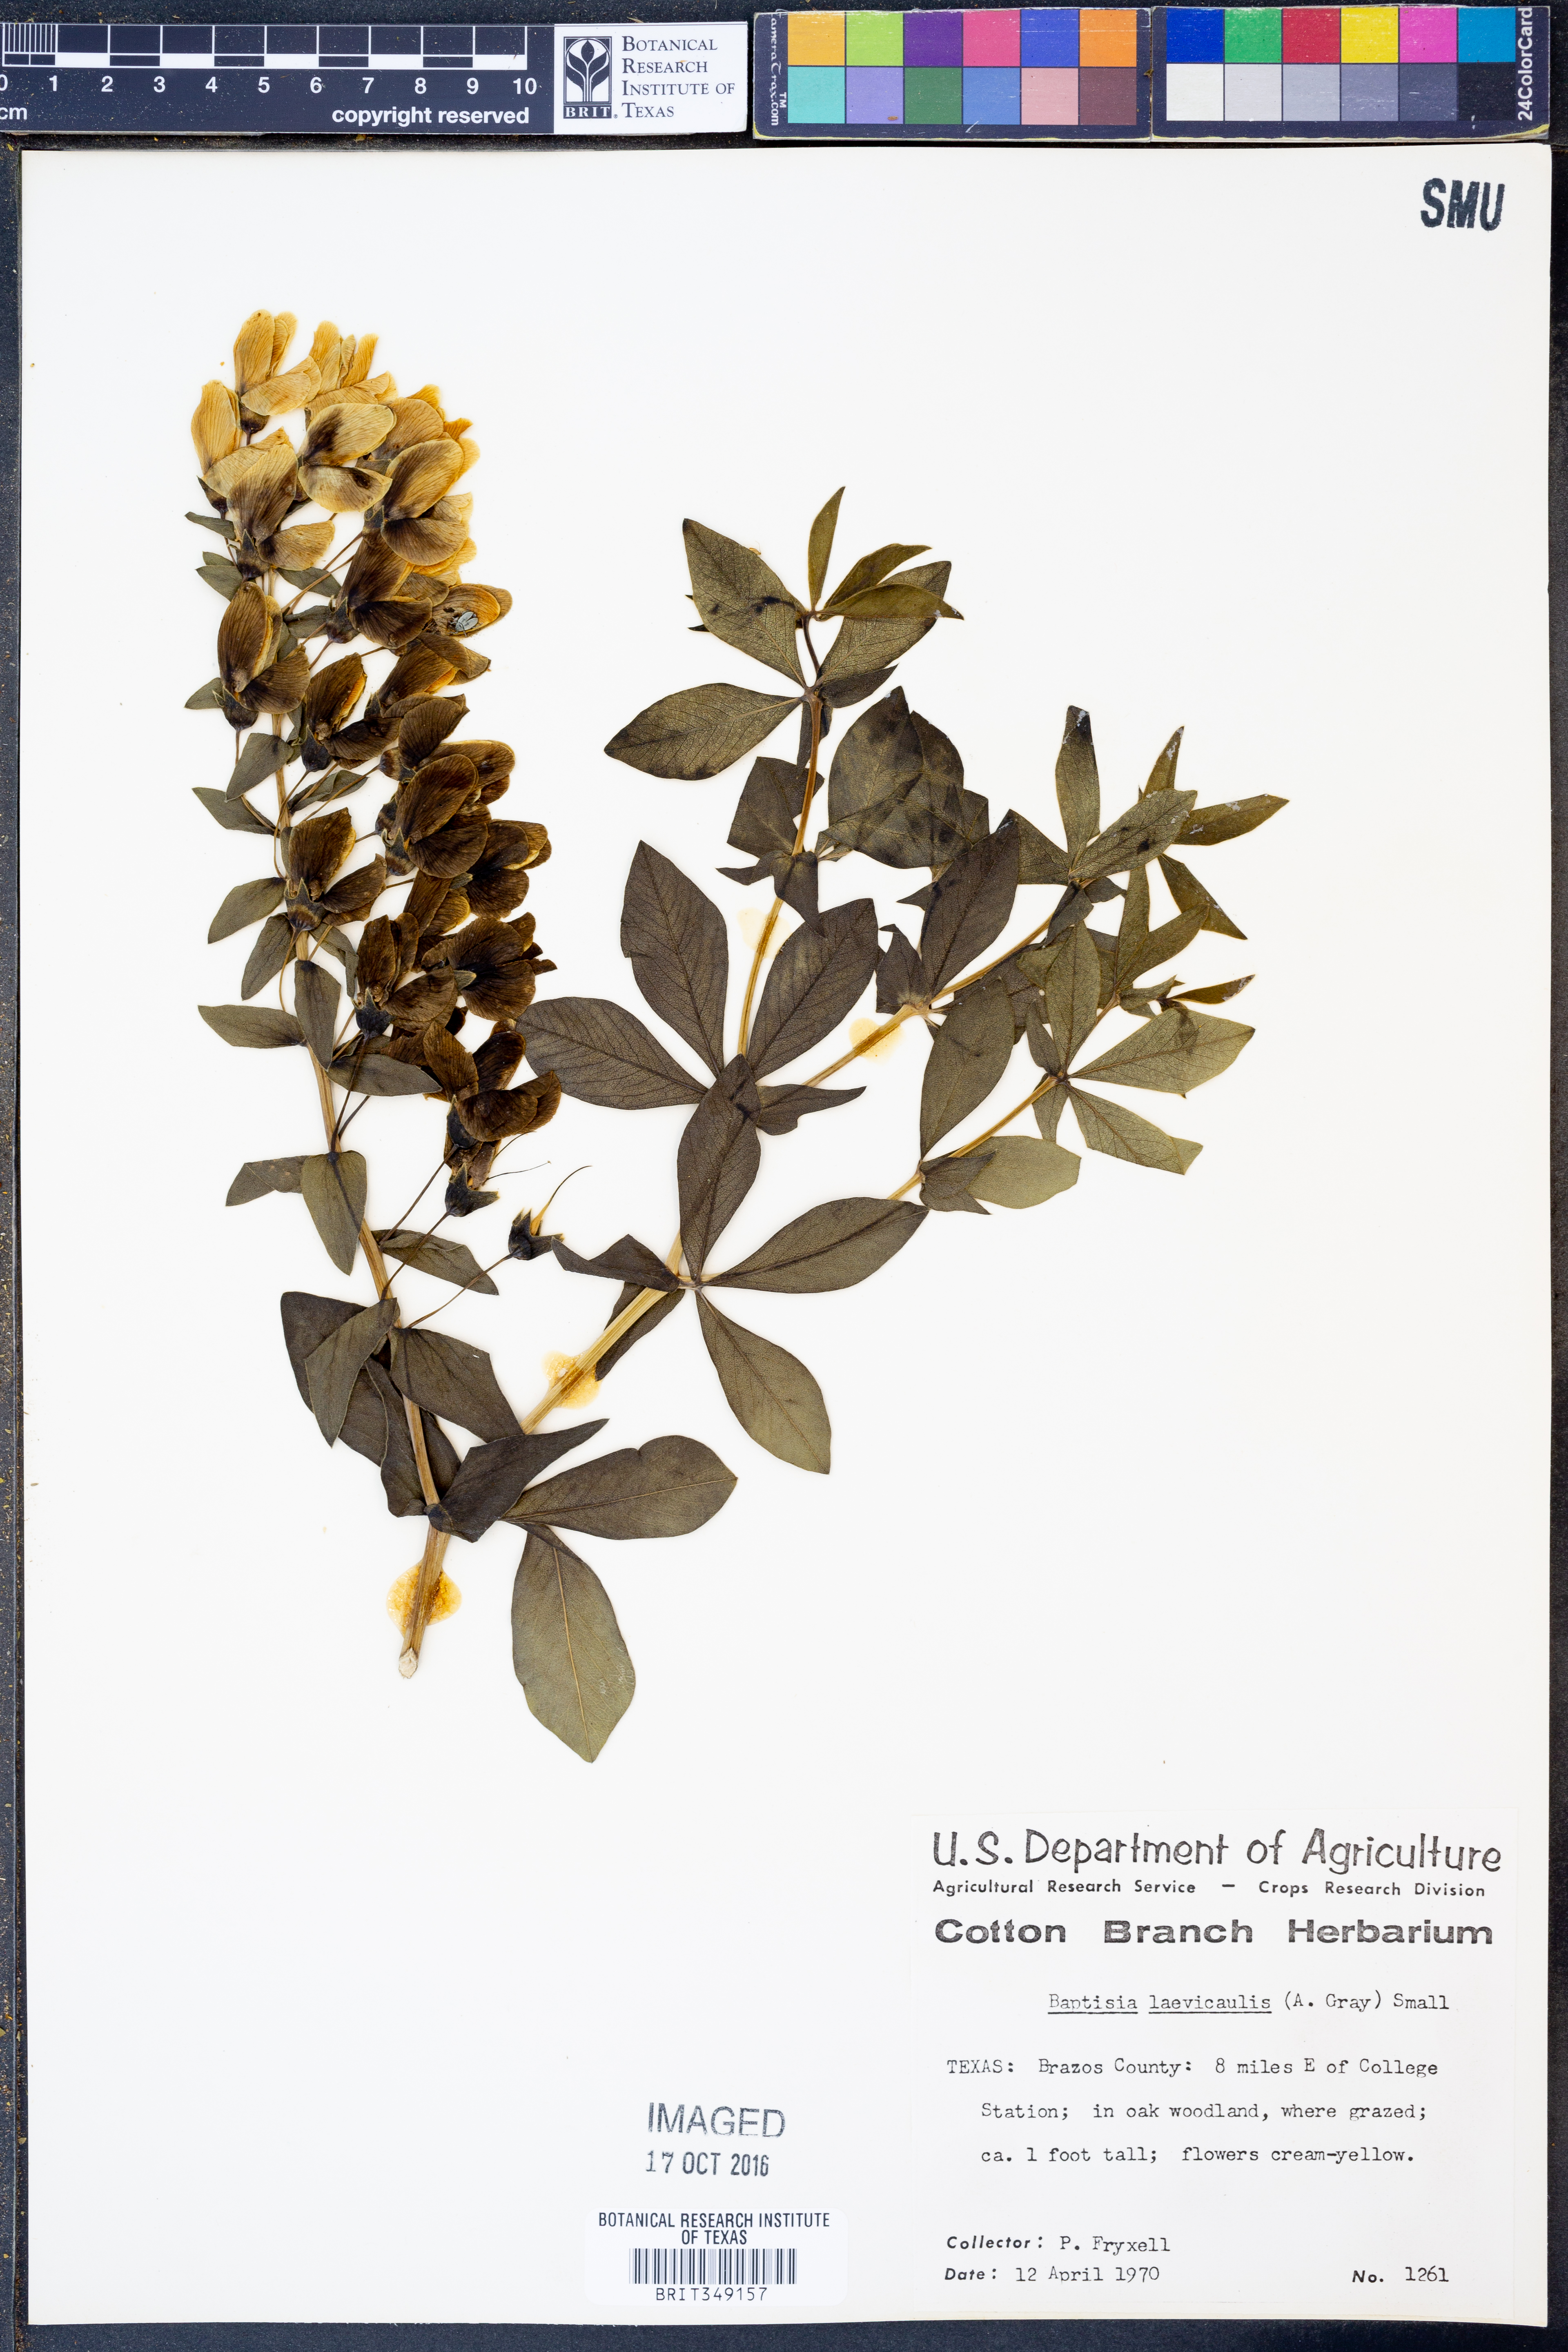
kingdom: Plantae
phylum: Tracheophyta
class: Magnoliopsida
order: Fabales
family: Fabaceae
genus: Baptisia
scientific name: Baptisia bracteata
